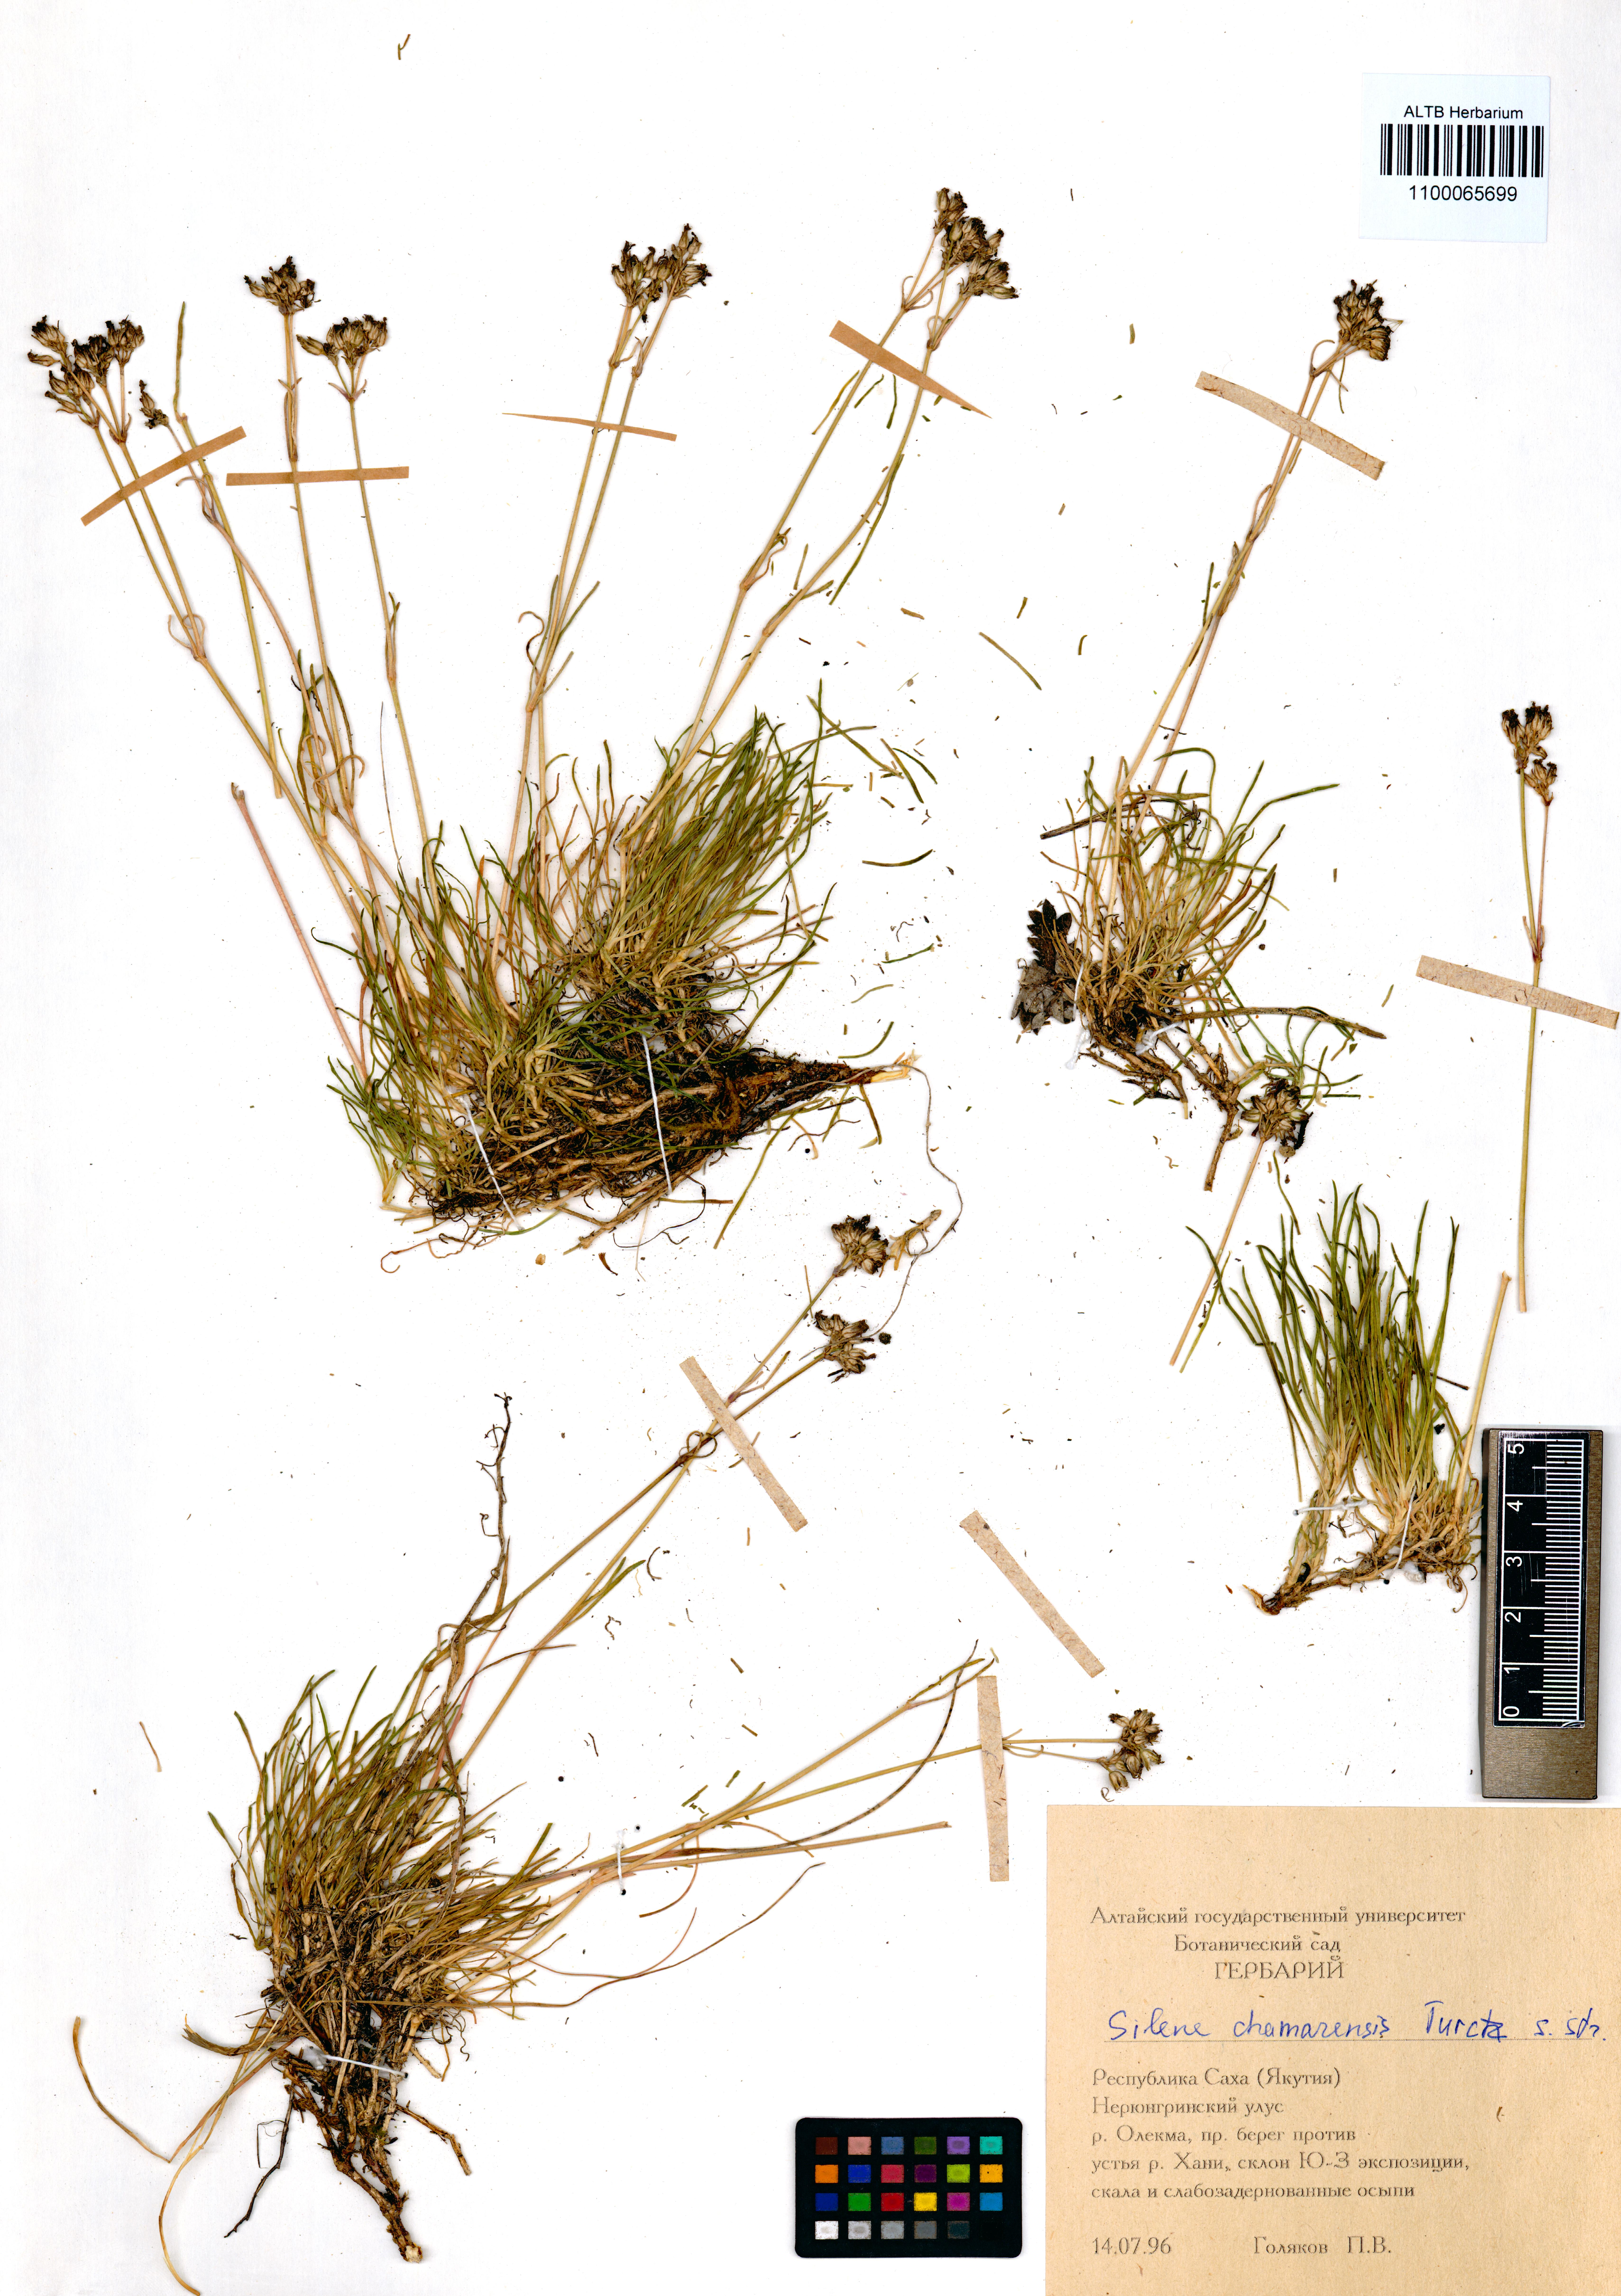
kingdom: Plantae
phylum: Tracheophyta
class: Magnoliopsida
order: Caryophyllales
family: Caryophyllaceae
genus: Silene
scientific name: Silene chamarensis
